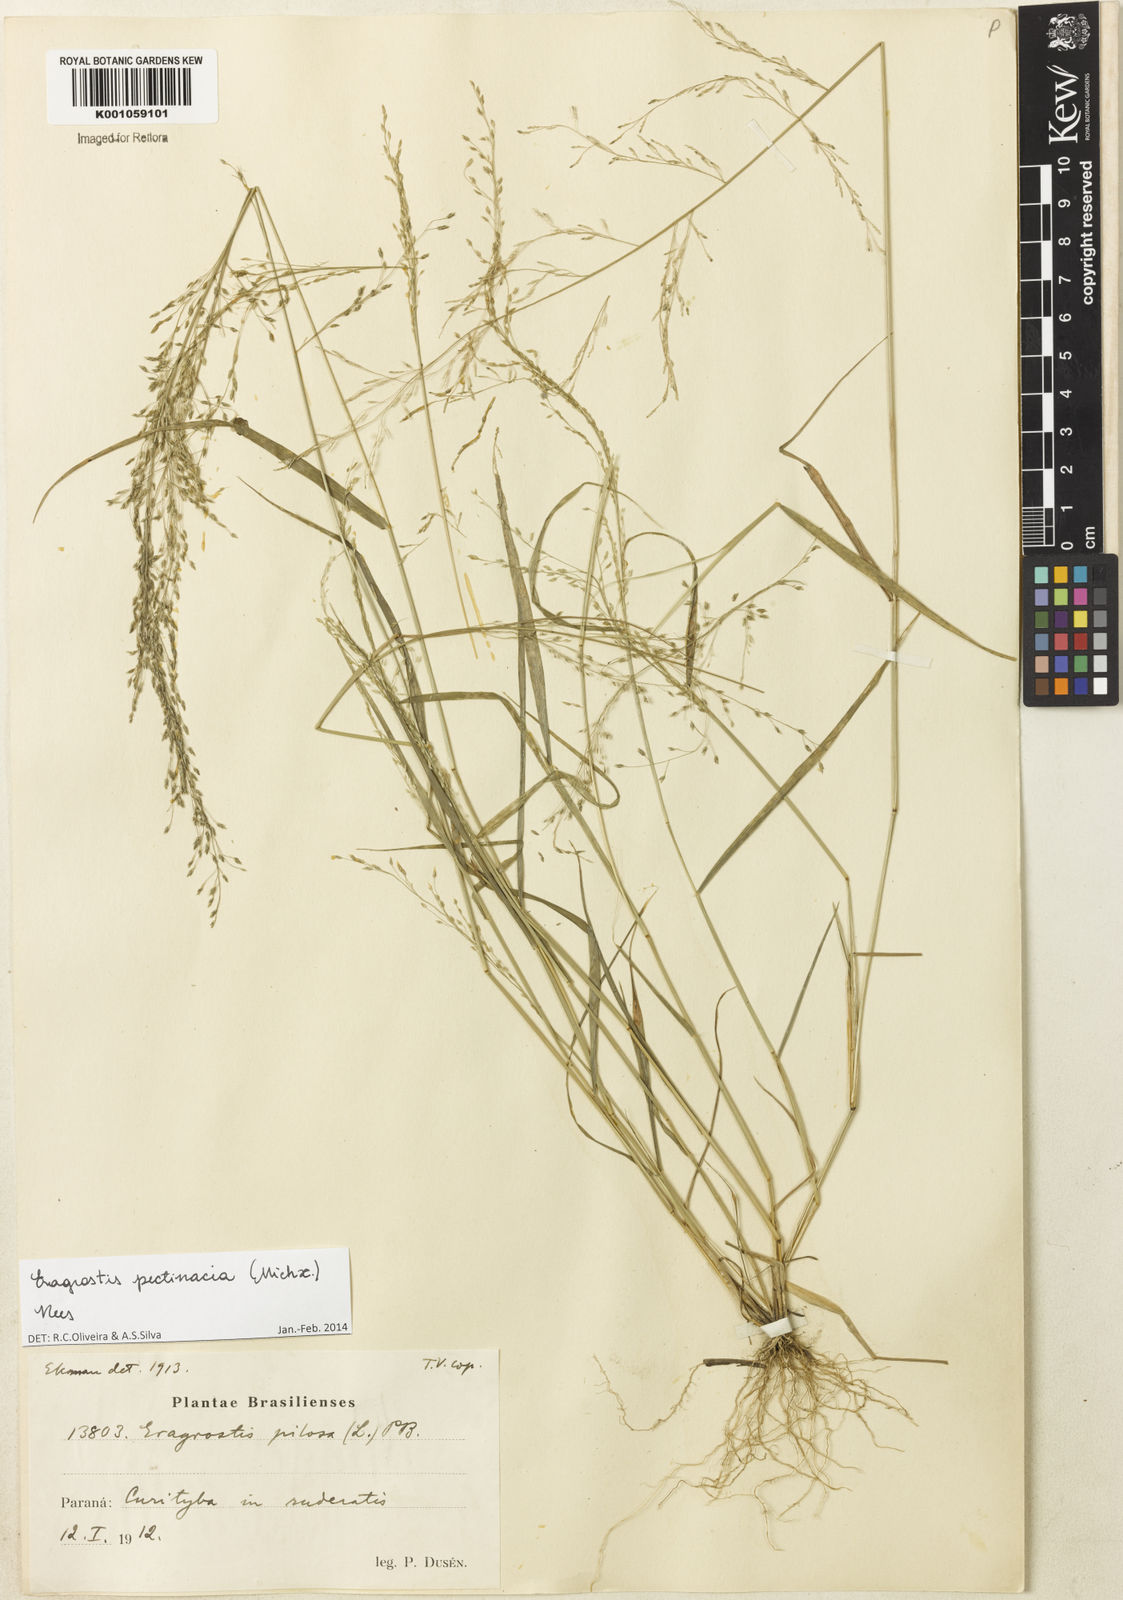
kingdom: Plantae
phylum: Tracheophyta
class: Liliopsida
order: Poales
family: Poaceae
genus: Eragrostis
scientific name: Eragrostis pectinacea
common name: Tufted lovegrass
